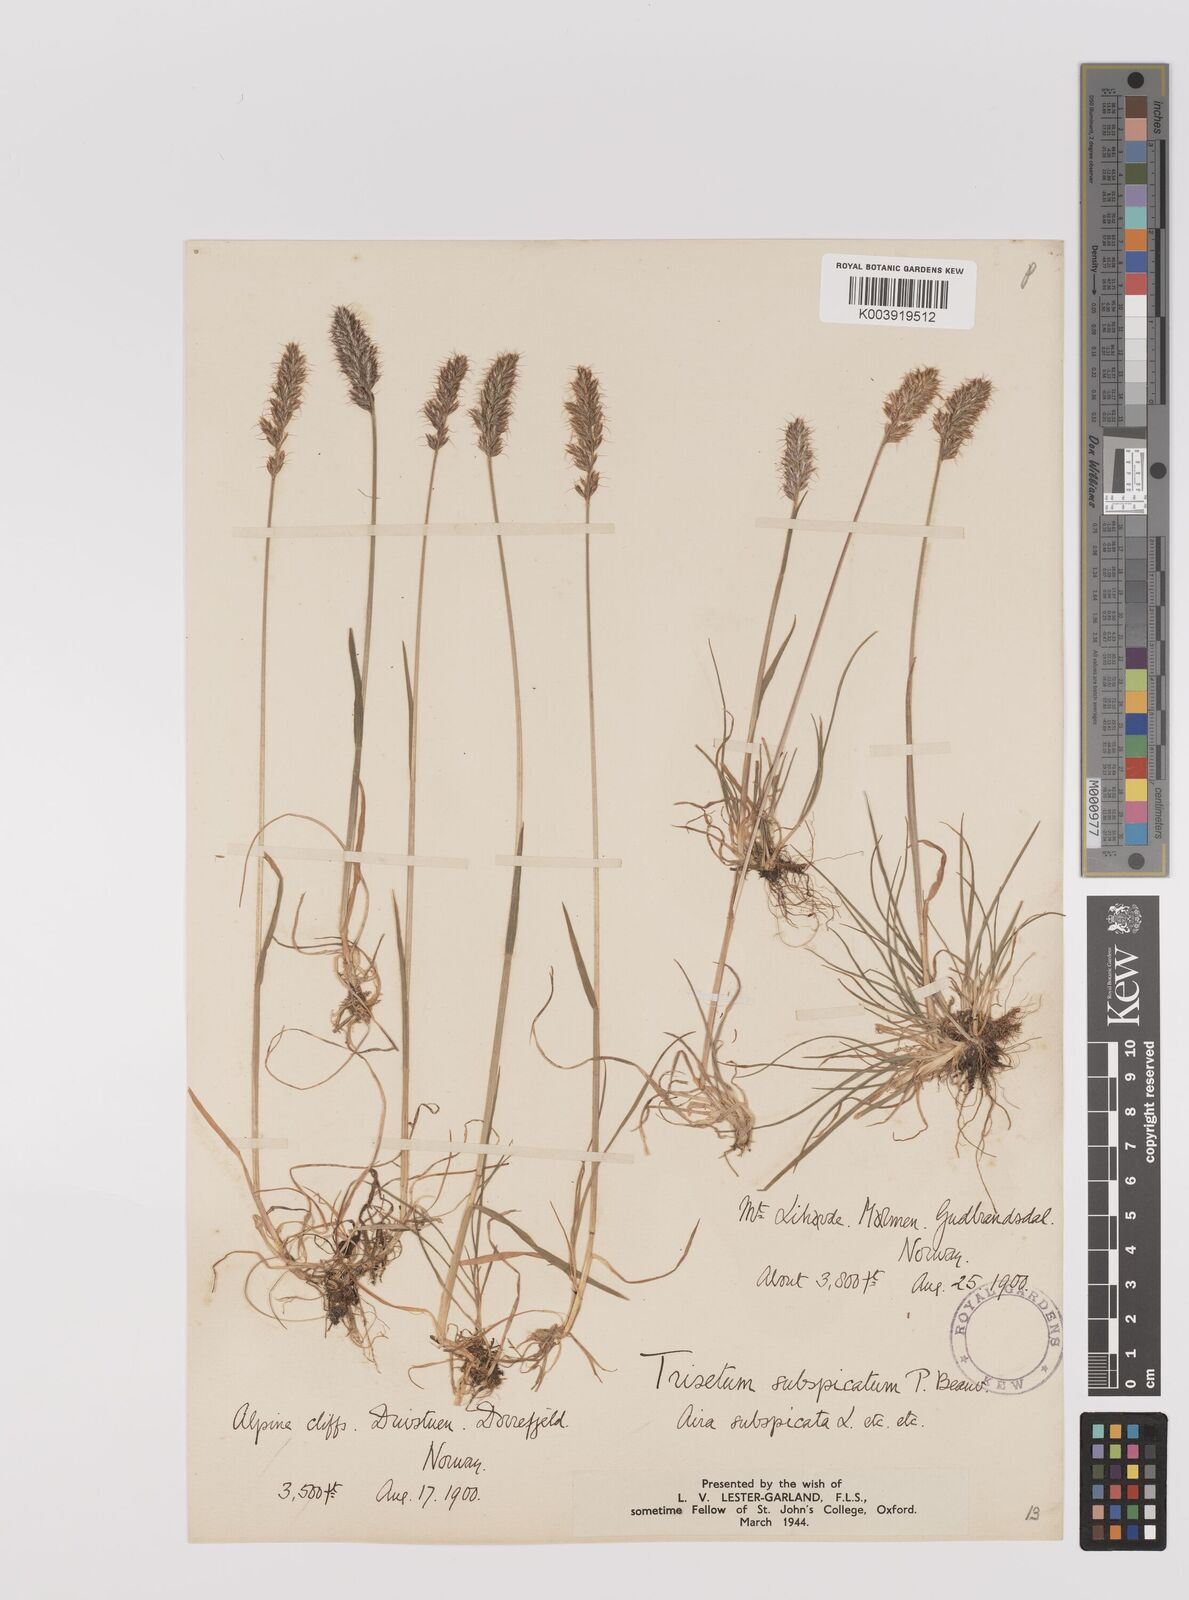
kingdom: Plantae
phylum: Tracheophyta
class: Liliopsida
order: Poales
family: Poaceae
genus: Koeleria
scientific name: Koeleria spicata
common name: Mountain trisetum
